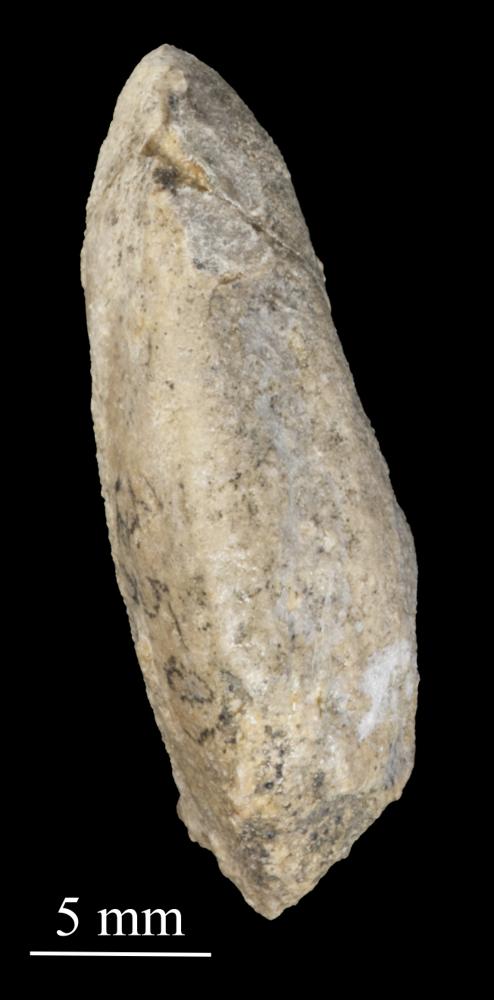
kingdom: Animalia
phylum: Mollusca
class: Gastropoda
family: Bellerophontidae
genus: Temnodiscus
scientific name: Temnodiscus accola
